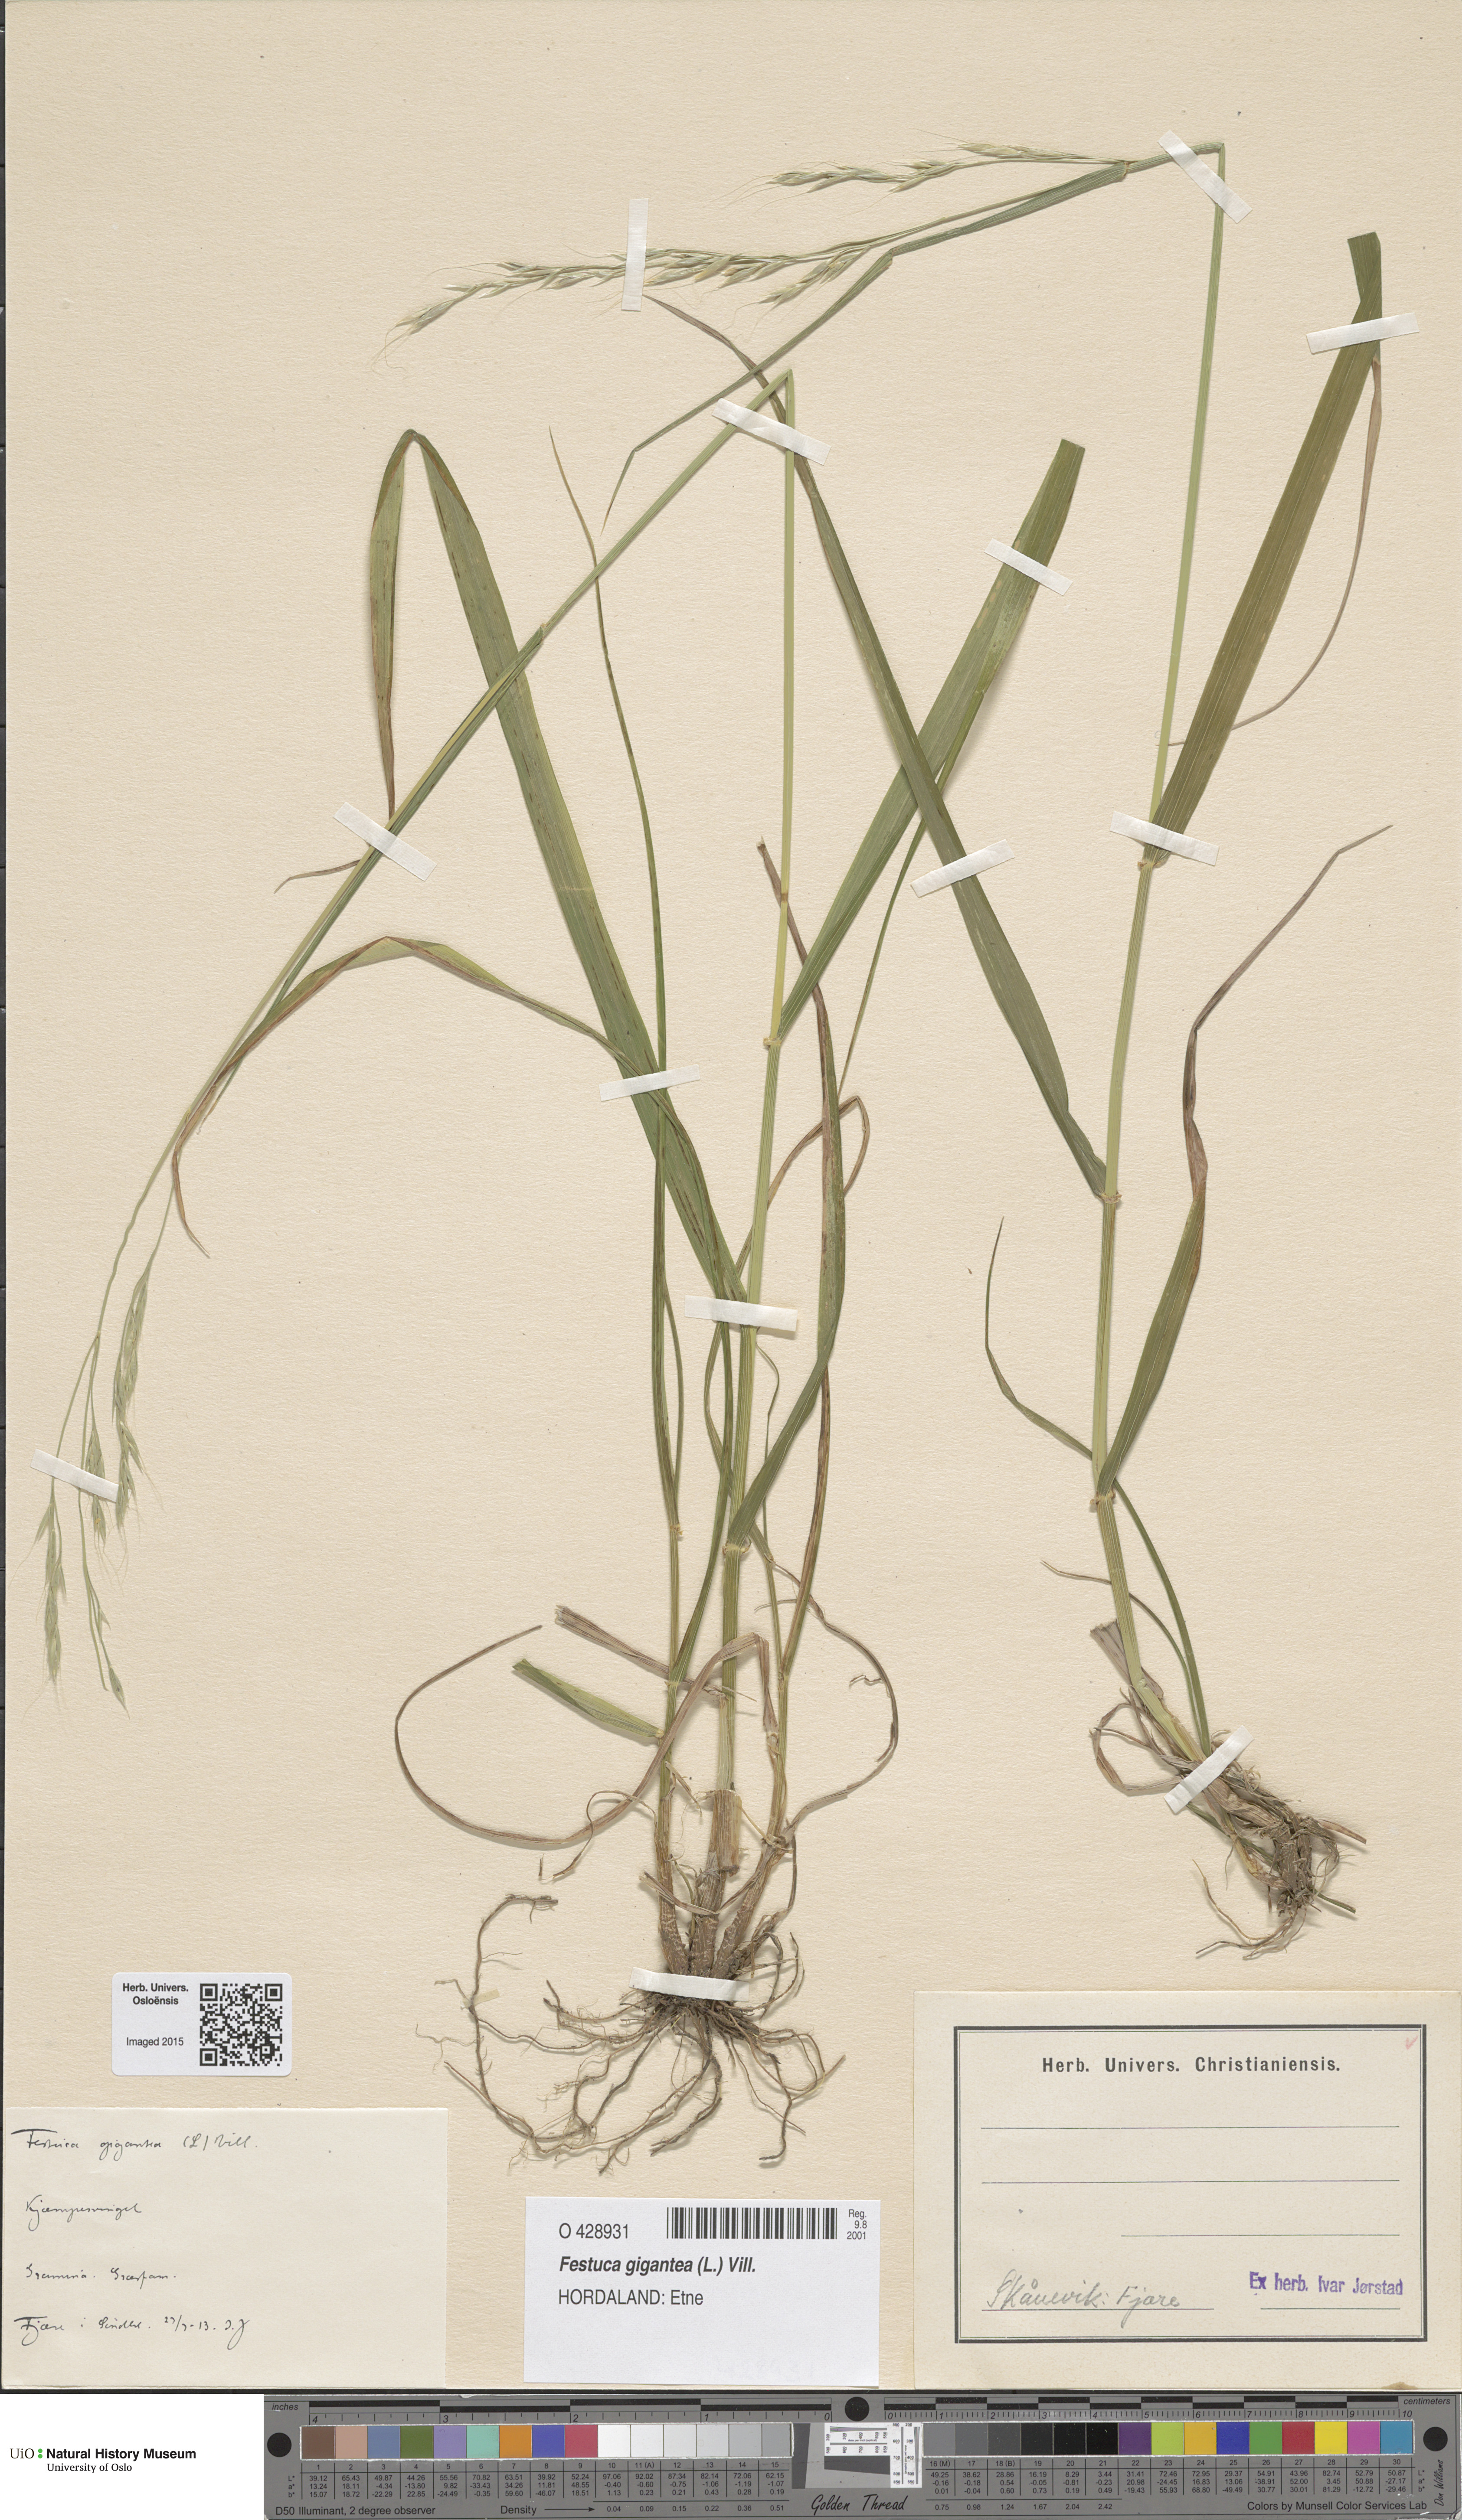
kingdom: Plantae
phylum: Tracheophyta
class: Liliopsida
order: Poales
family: Poaceae
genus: Lolium
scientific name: Lolium giganteum
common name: Giant fescue
